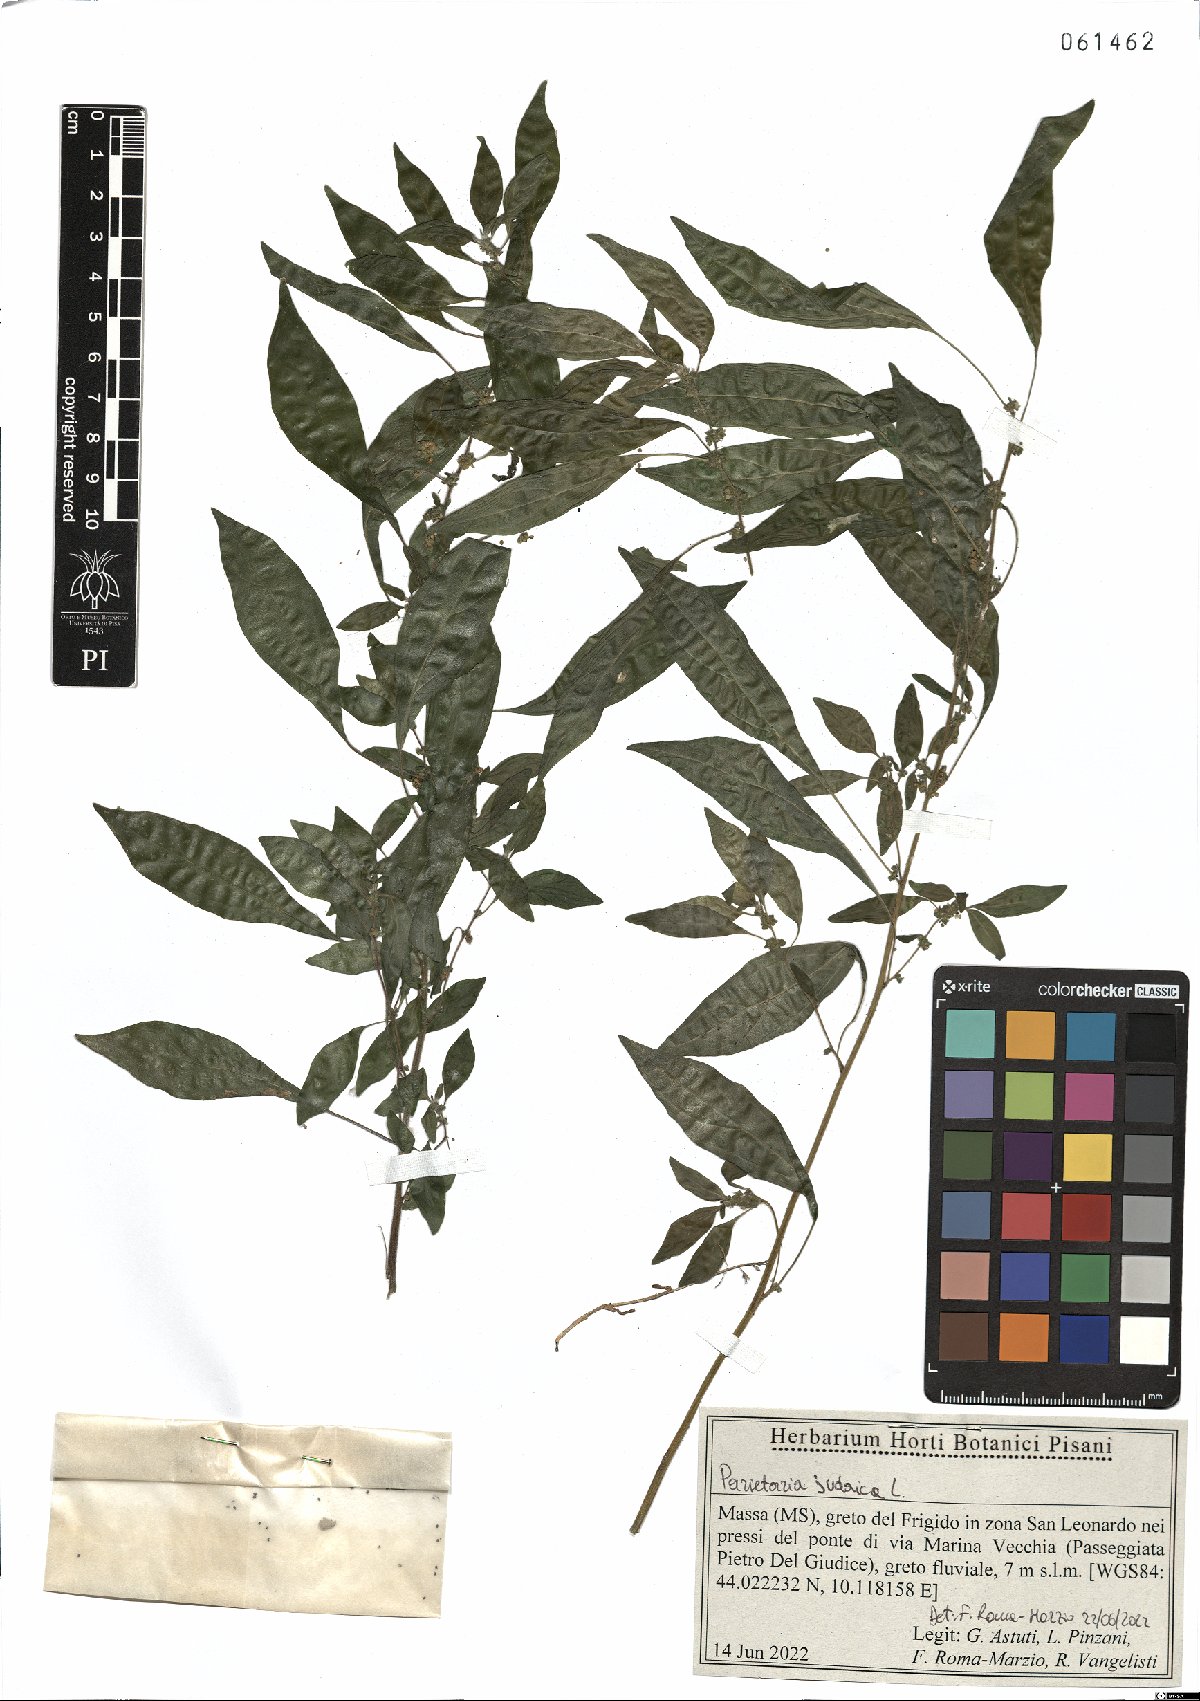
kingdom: Plantae
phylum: Tracheophyta
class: Magnoliopsida
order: Rosales
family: Urticaceae
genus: Parietaria
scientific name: Parietaria judaica
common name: Pellitory-of-the-wall
